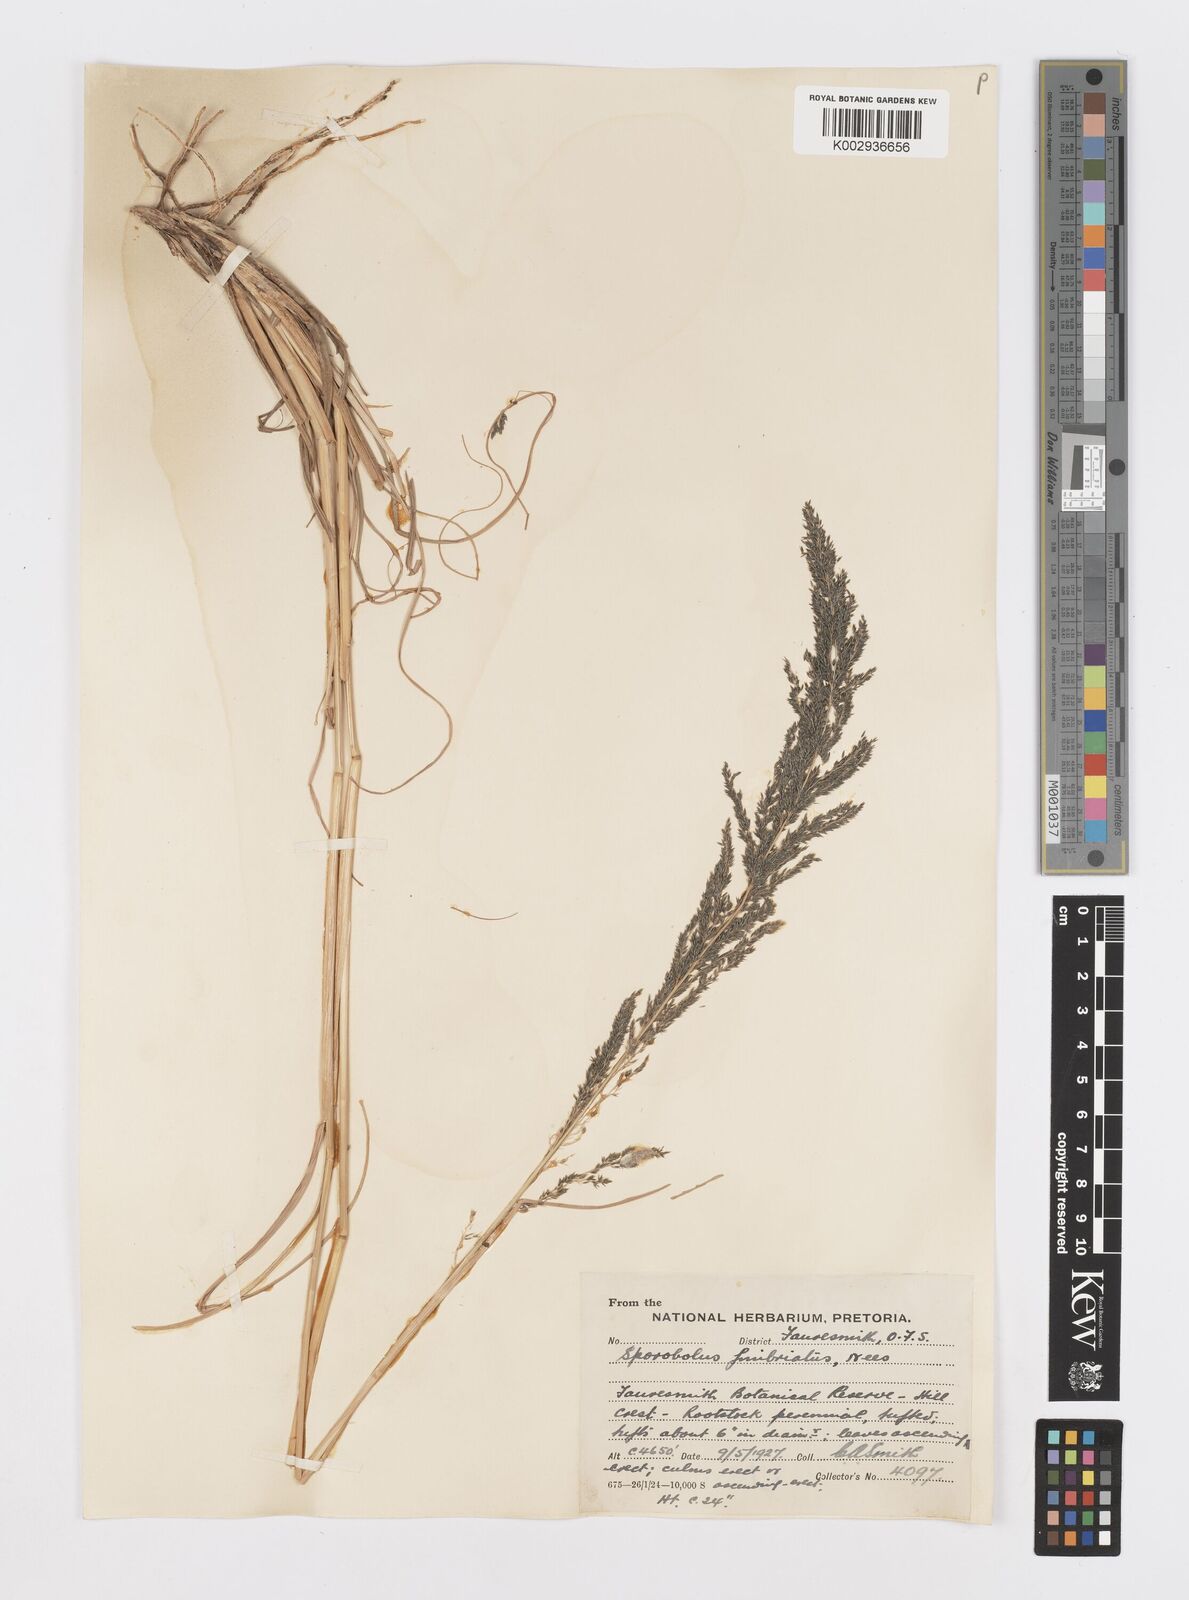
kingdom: Plantae
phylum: Tracheophyta
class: Liliopsida
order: Poales
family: Poaceae
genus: Sporobolus
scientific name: Sporobolus fimbriatus
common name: Fringed dropseed
